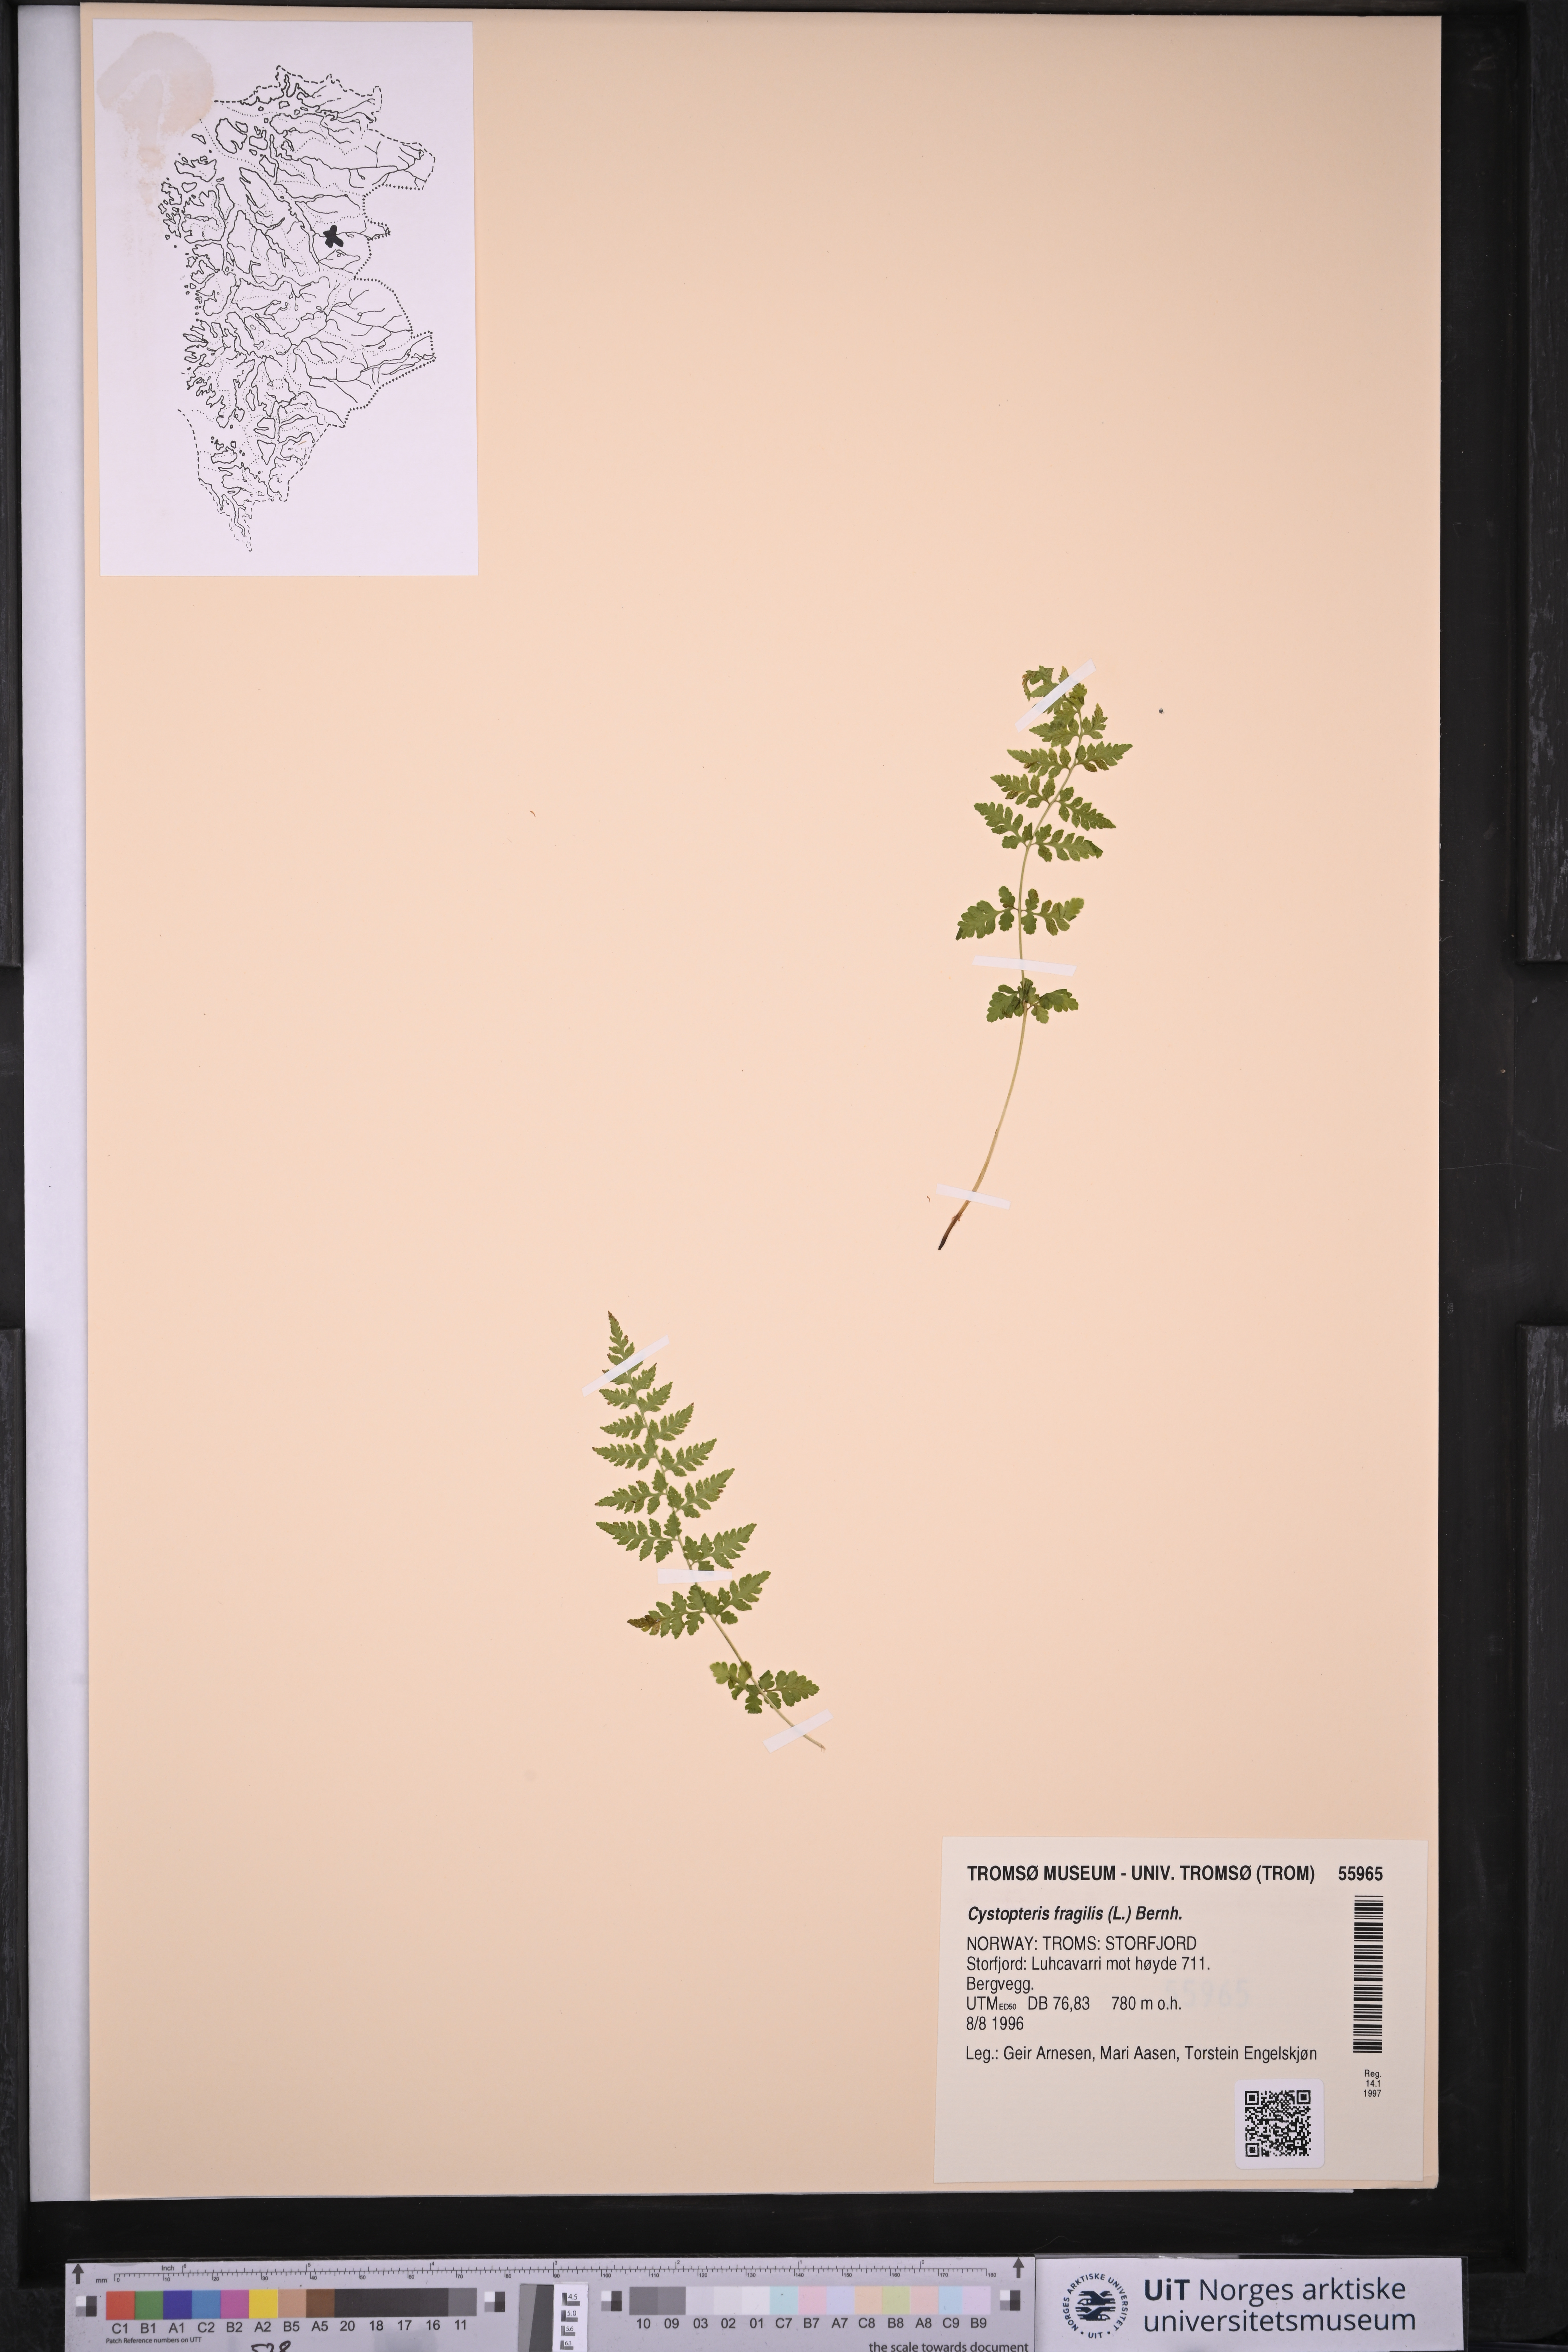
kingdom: Plantae
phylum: Tracheophyta
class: Polypodiopsida
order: Polypodiales
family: Cystopteridaceae
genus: Cystopteris
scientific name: Cystopteris fragilis
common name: Brittle bladder fern
